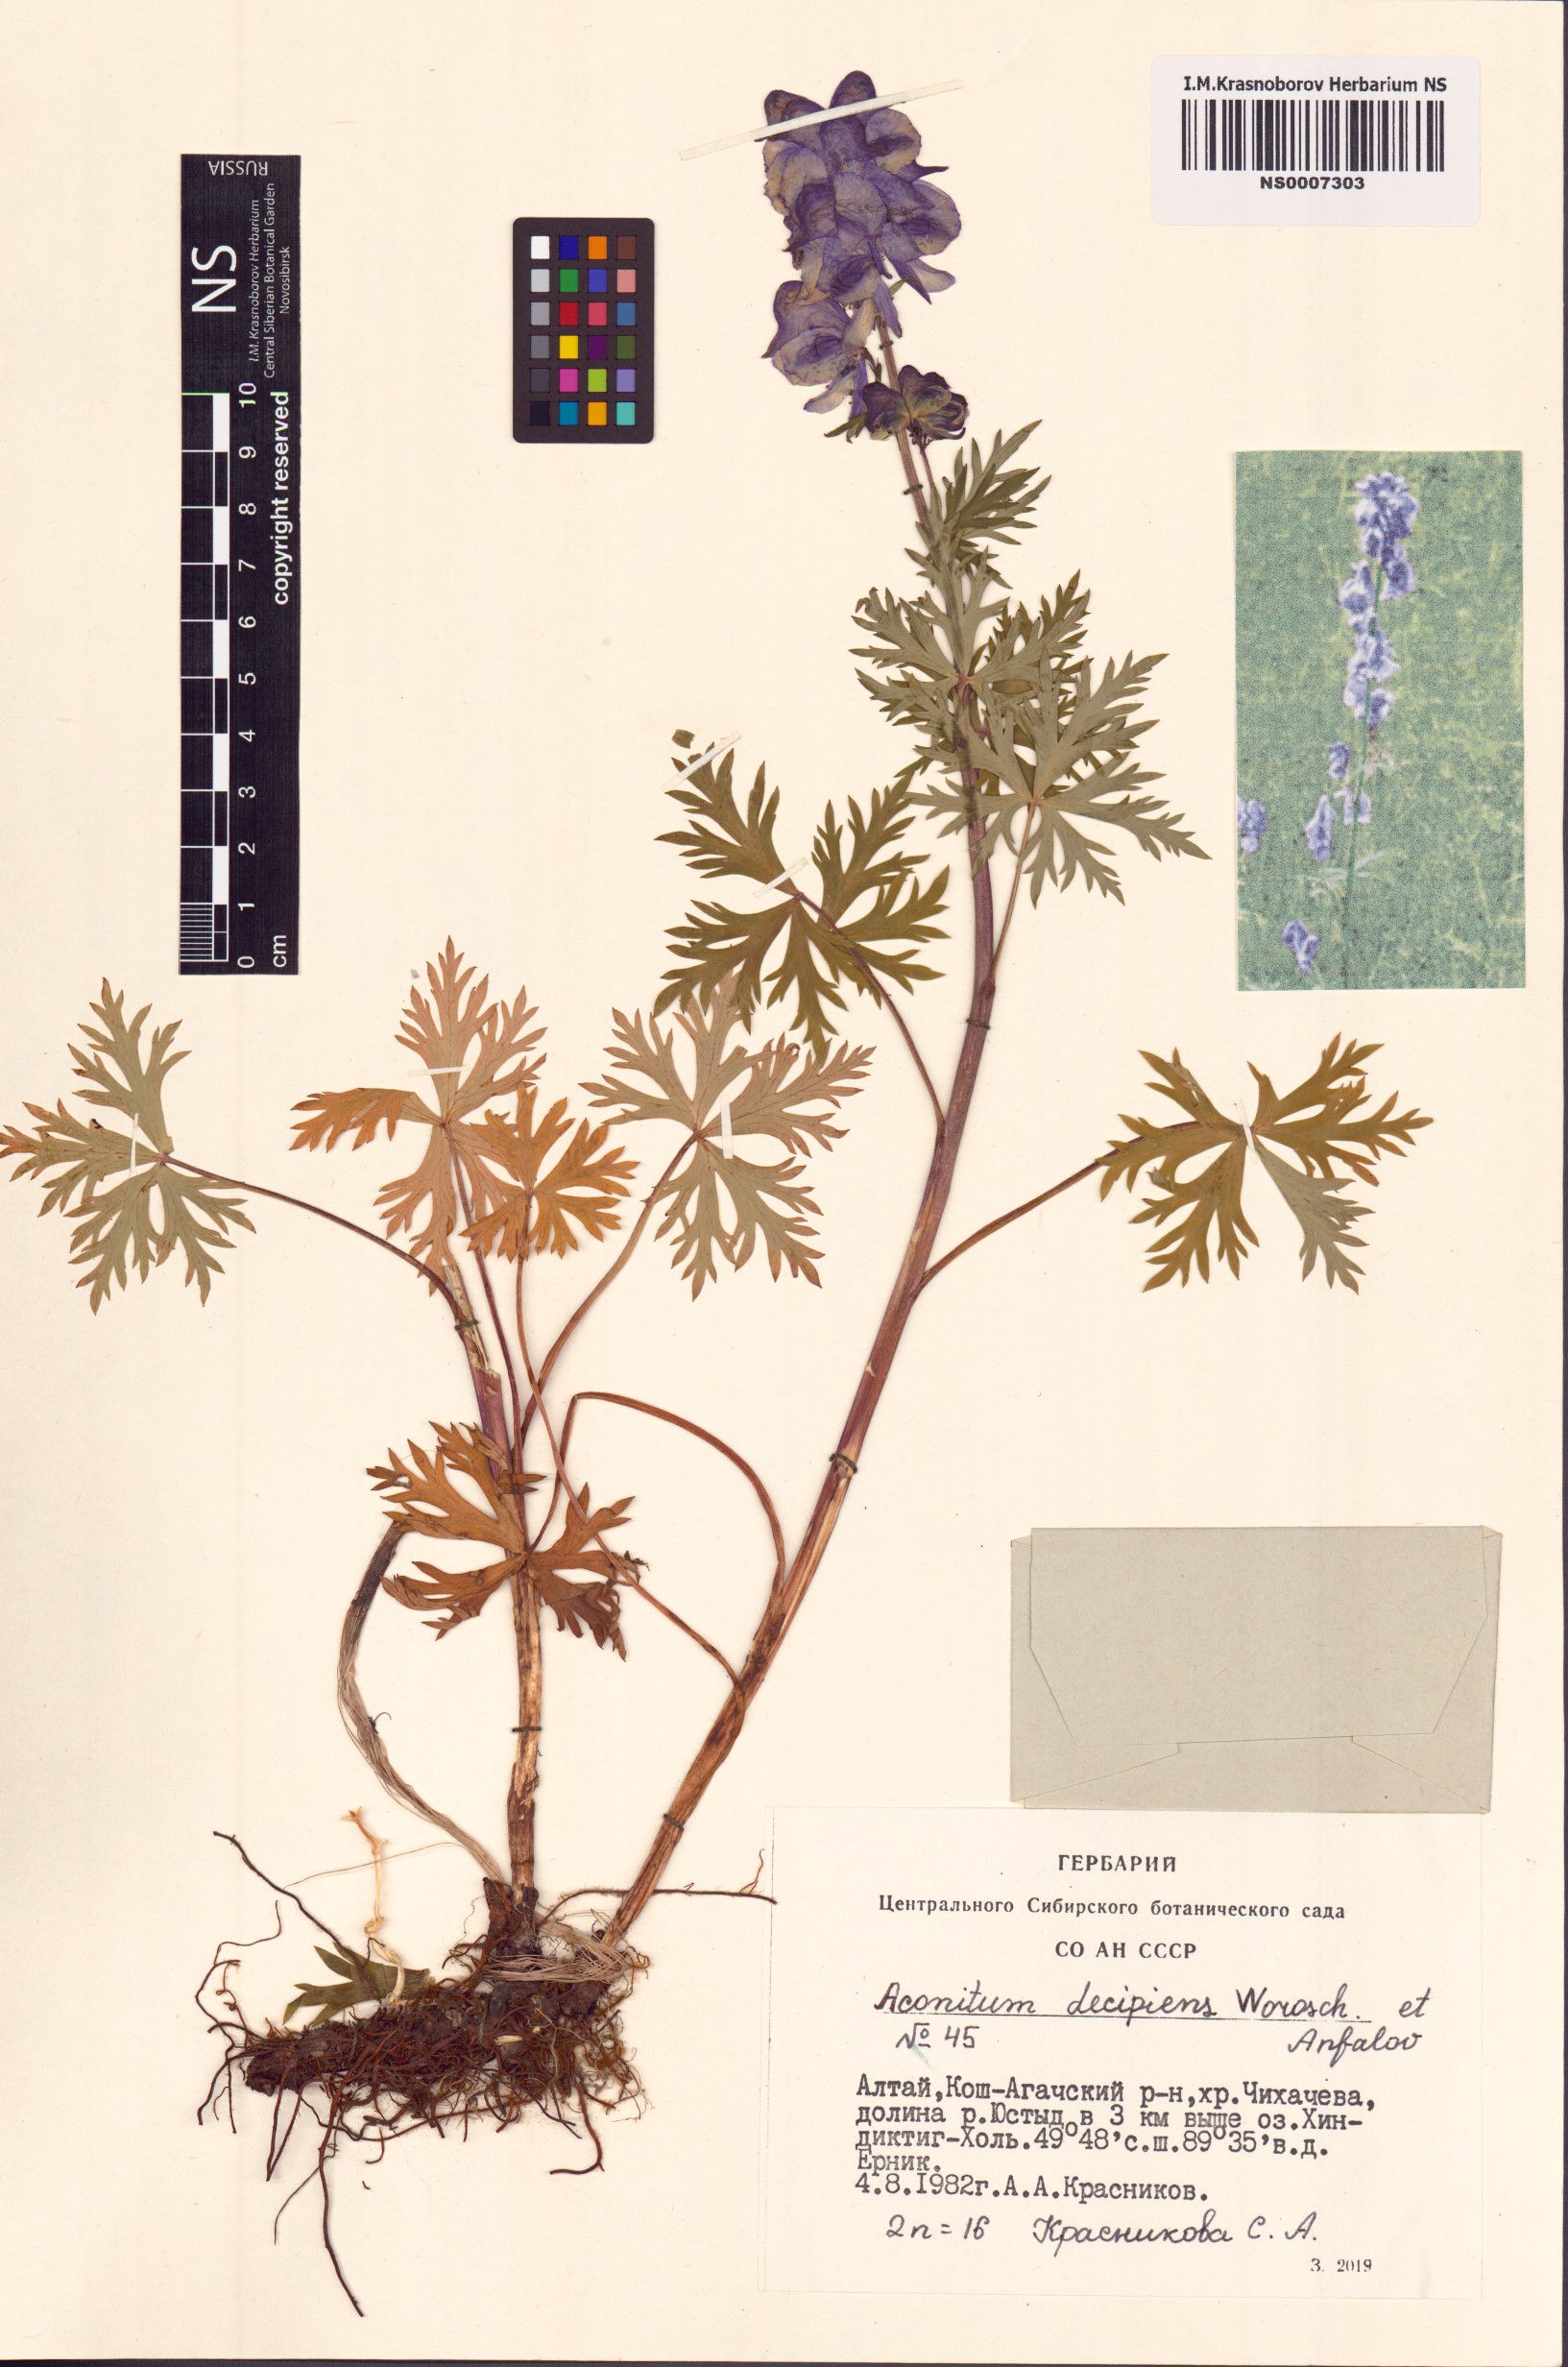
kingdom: Plantae
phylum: Tracheophyta
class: Magnoliopsida
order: Ranunculales
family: Ranunculaceae
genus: Aconitum
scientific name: Aconitum decipiens
